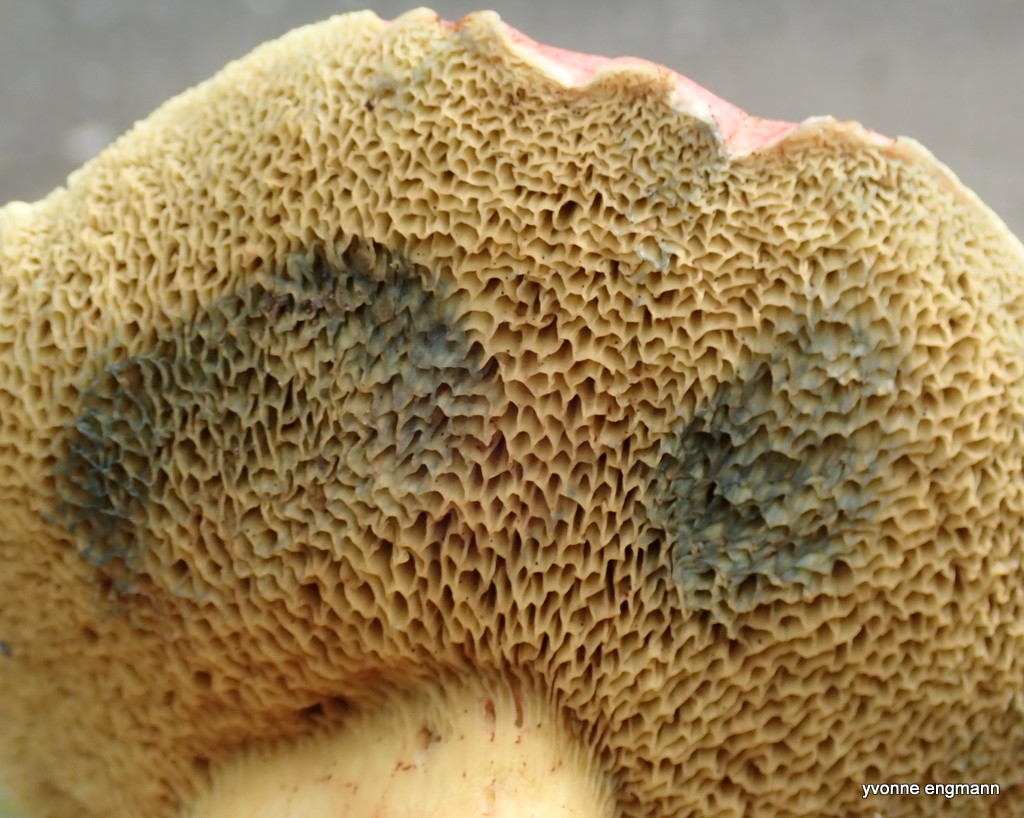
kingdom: Fungi
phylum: Basidiomycota
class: Agaricomycetes
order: Boletales
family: Boletaceae
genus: Hortiboletus
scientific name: Hortiboletus rubellus
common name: blodrød rørhat
